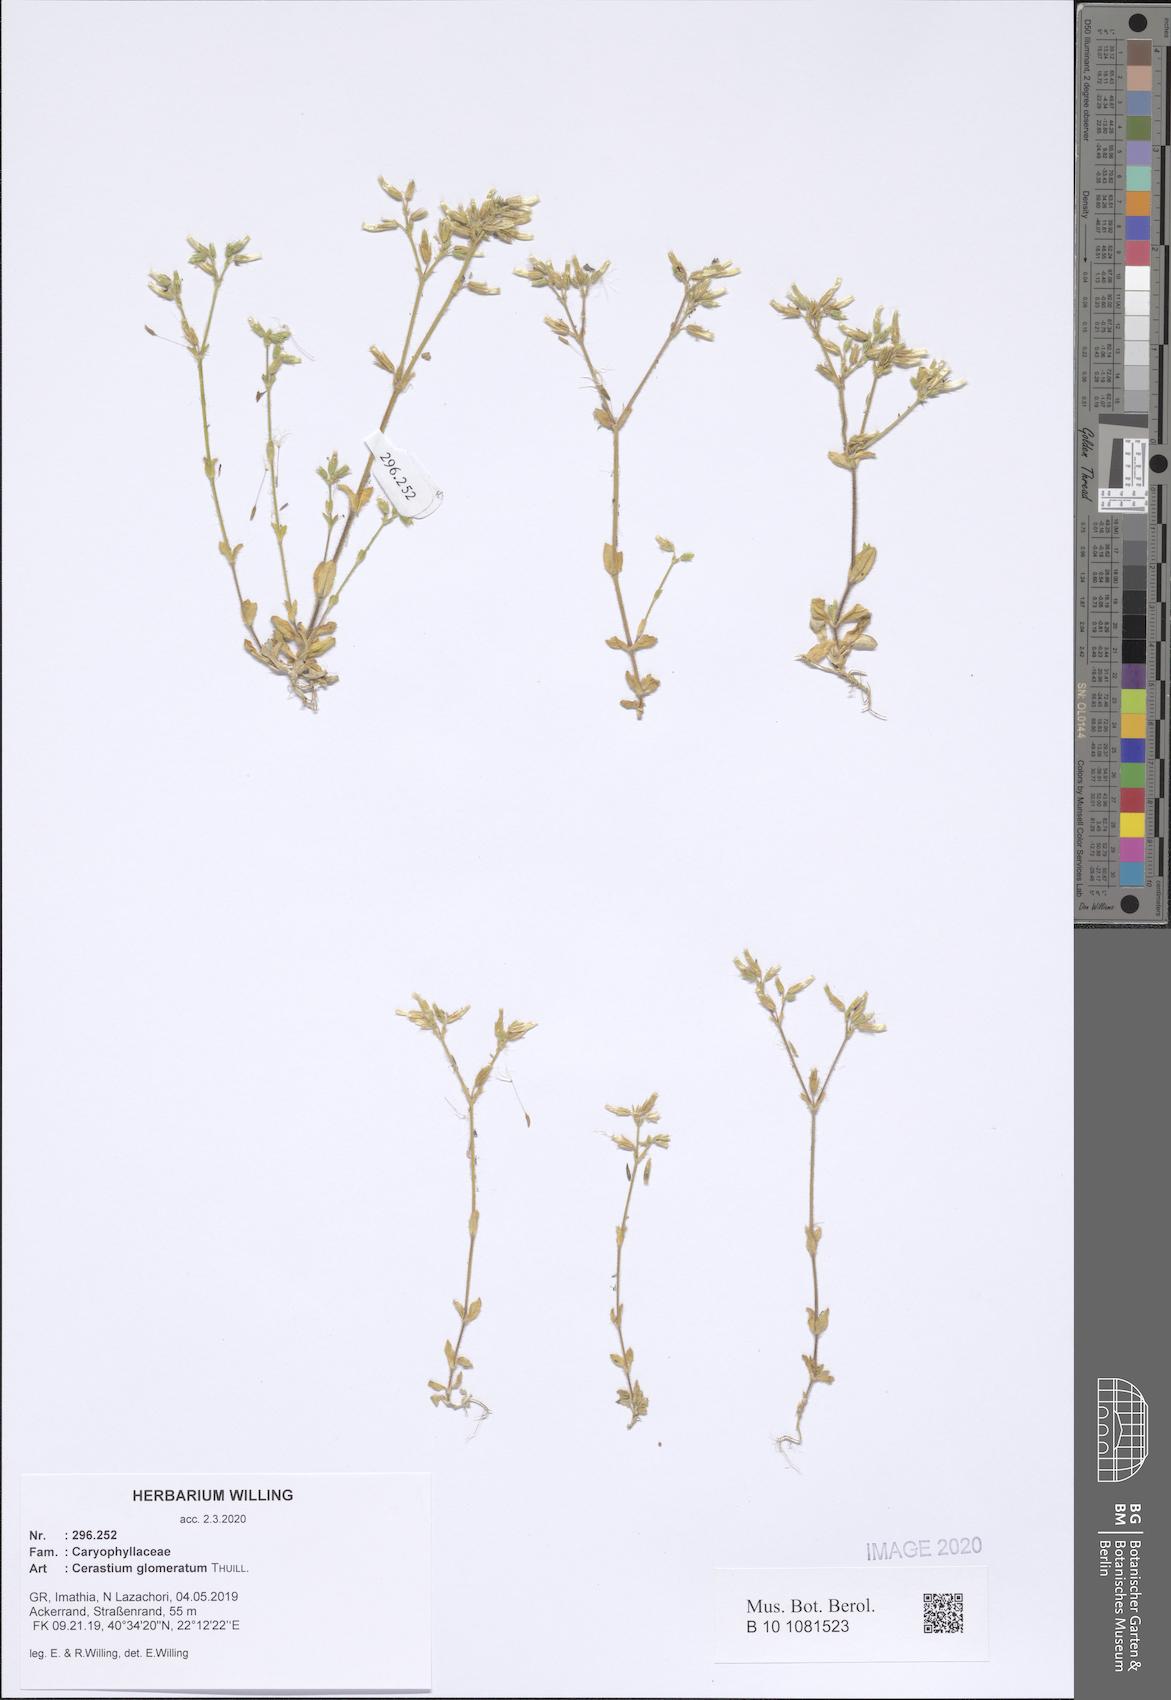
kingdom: Plantae
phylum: Tracheophyta
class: Magnoliopsida
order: Caryophyllales
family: Caryophyllaceae
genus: Cerastium
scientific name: Cerastium glomeratum
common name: Sticky chickweed
